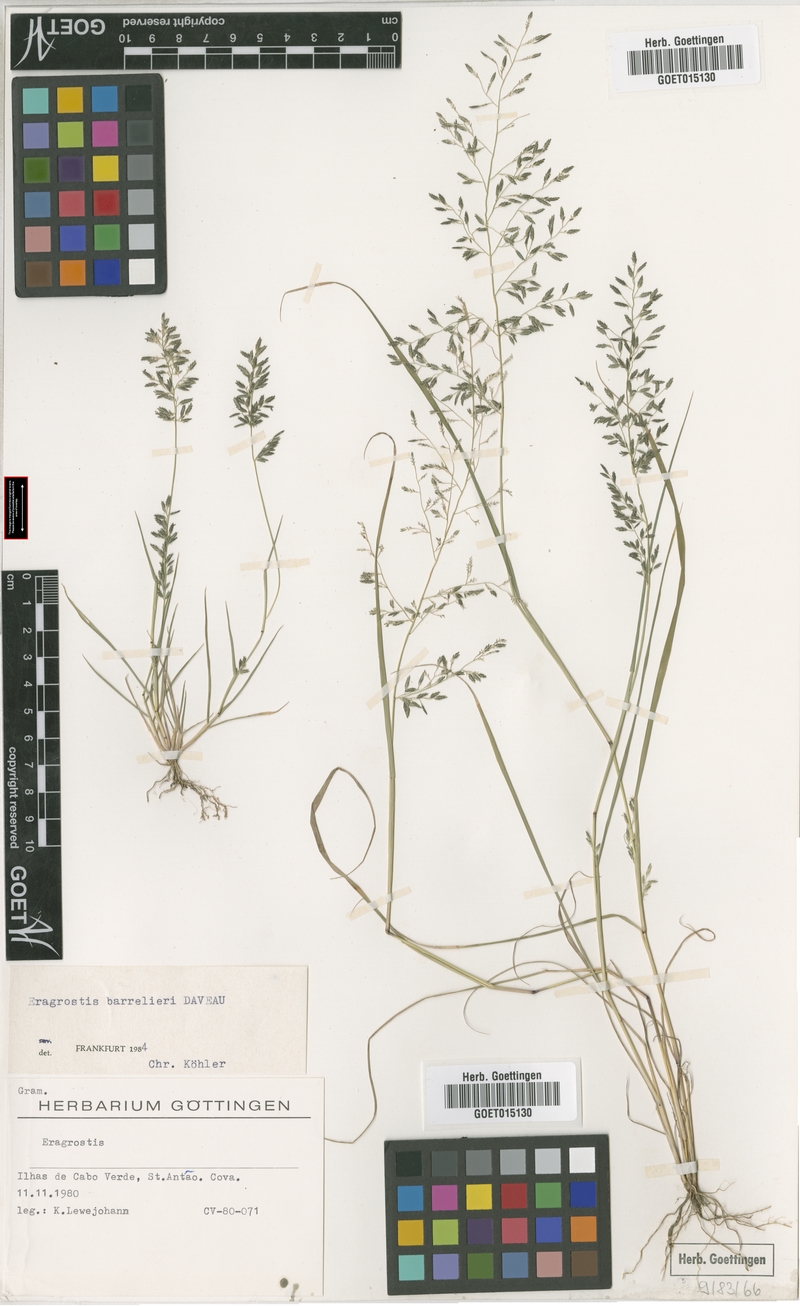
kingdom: Plantae
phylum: Tracheophyta
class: Liliopsida
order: Poales
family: Poaceae
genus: Eragrostis
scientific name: Eragrostis barrelieri
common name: Mediterranean lovegrass
